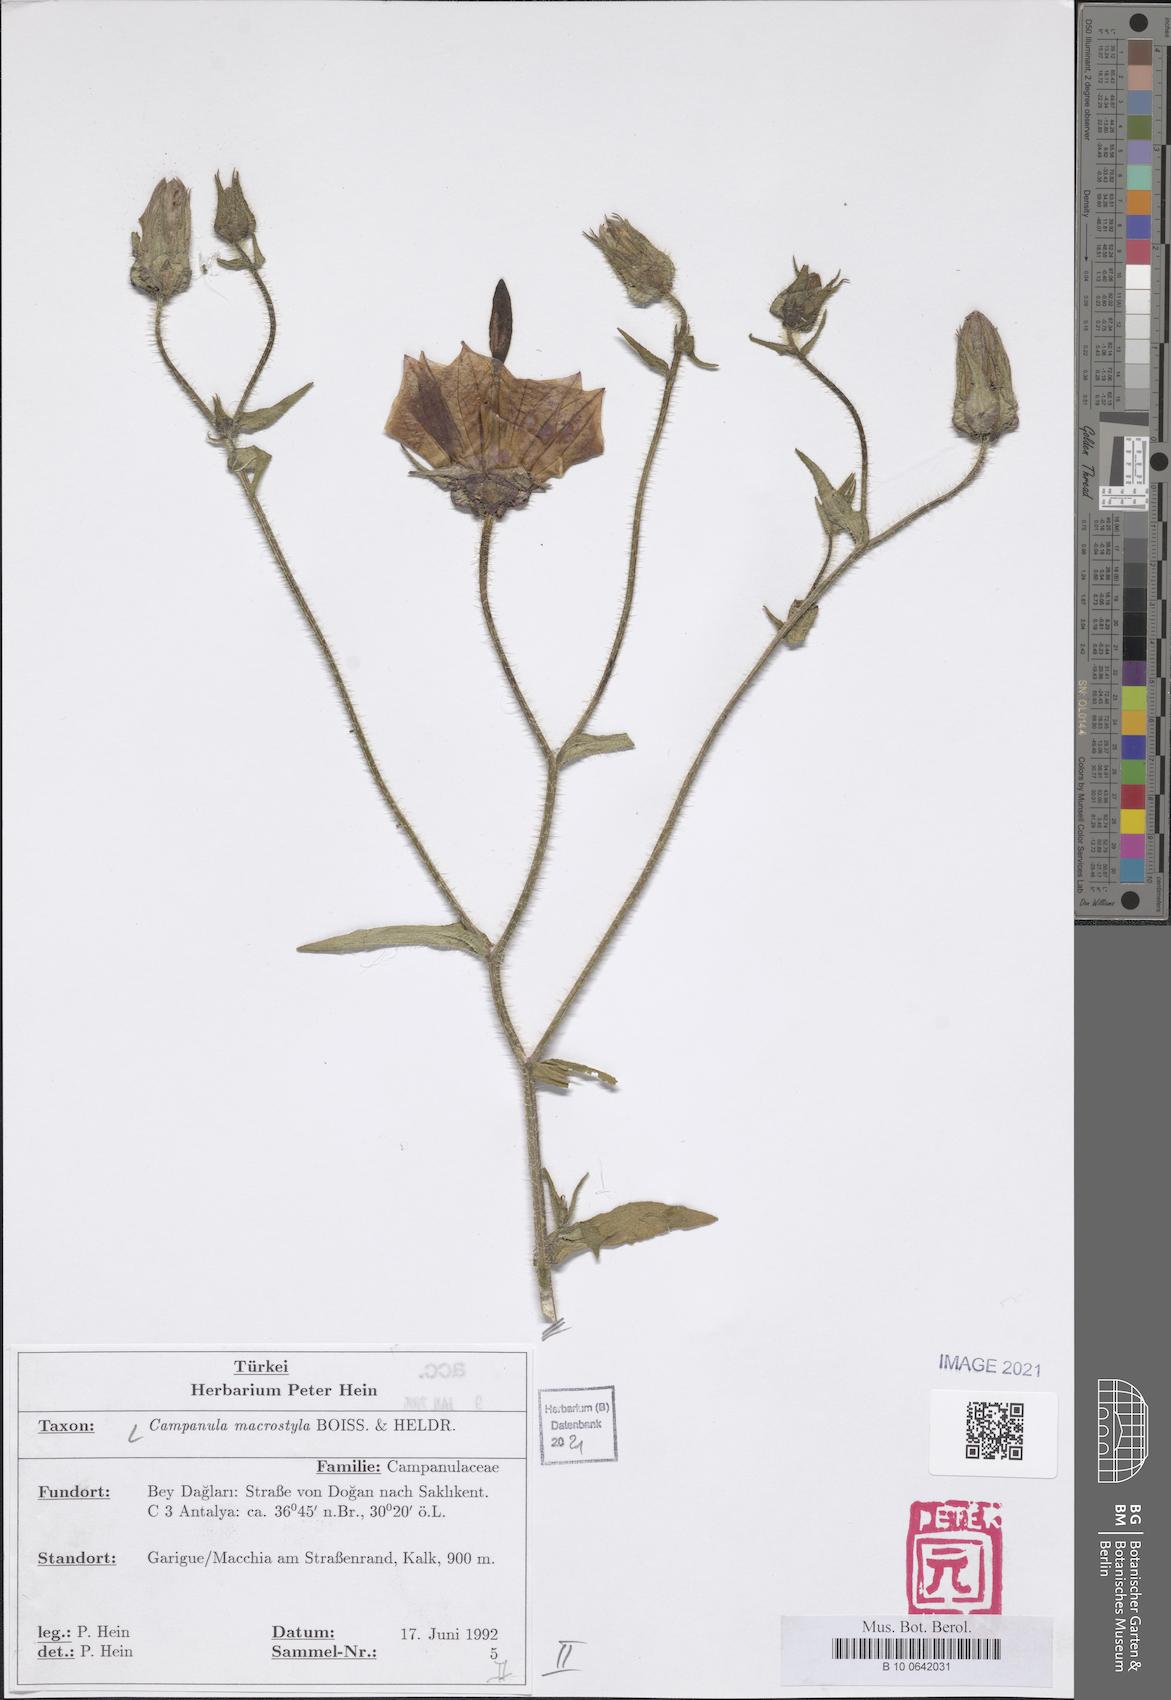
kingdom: Plantae
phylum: Tracheophyta
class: Magnoliopsida
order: Asterales
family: Campanulaceae
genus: Campanula
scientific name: Campanula macrostyla
